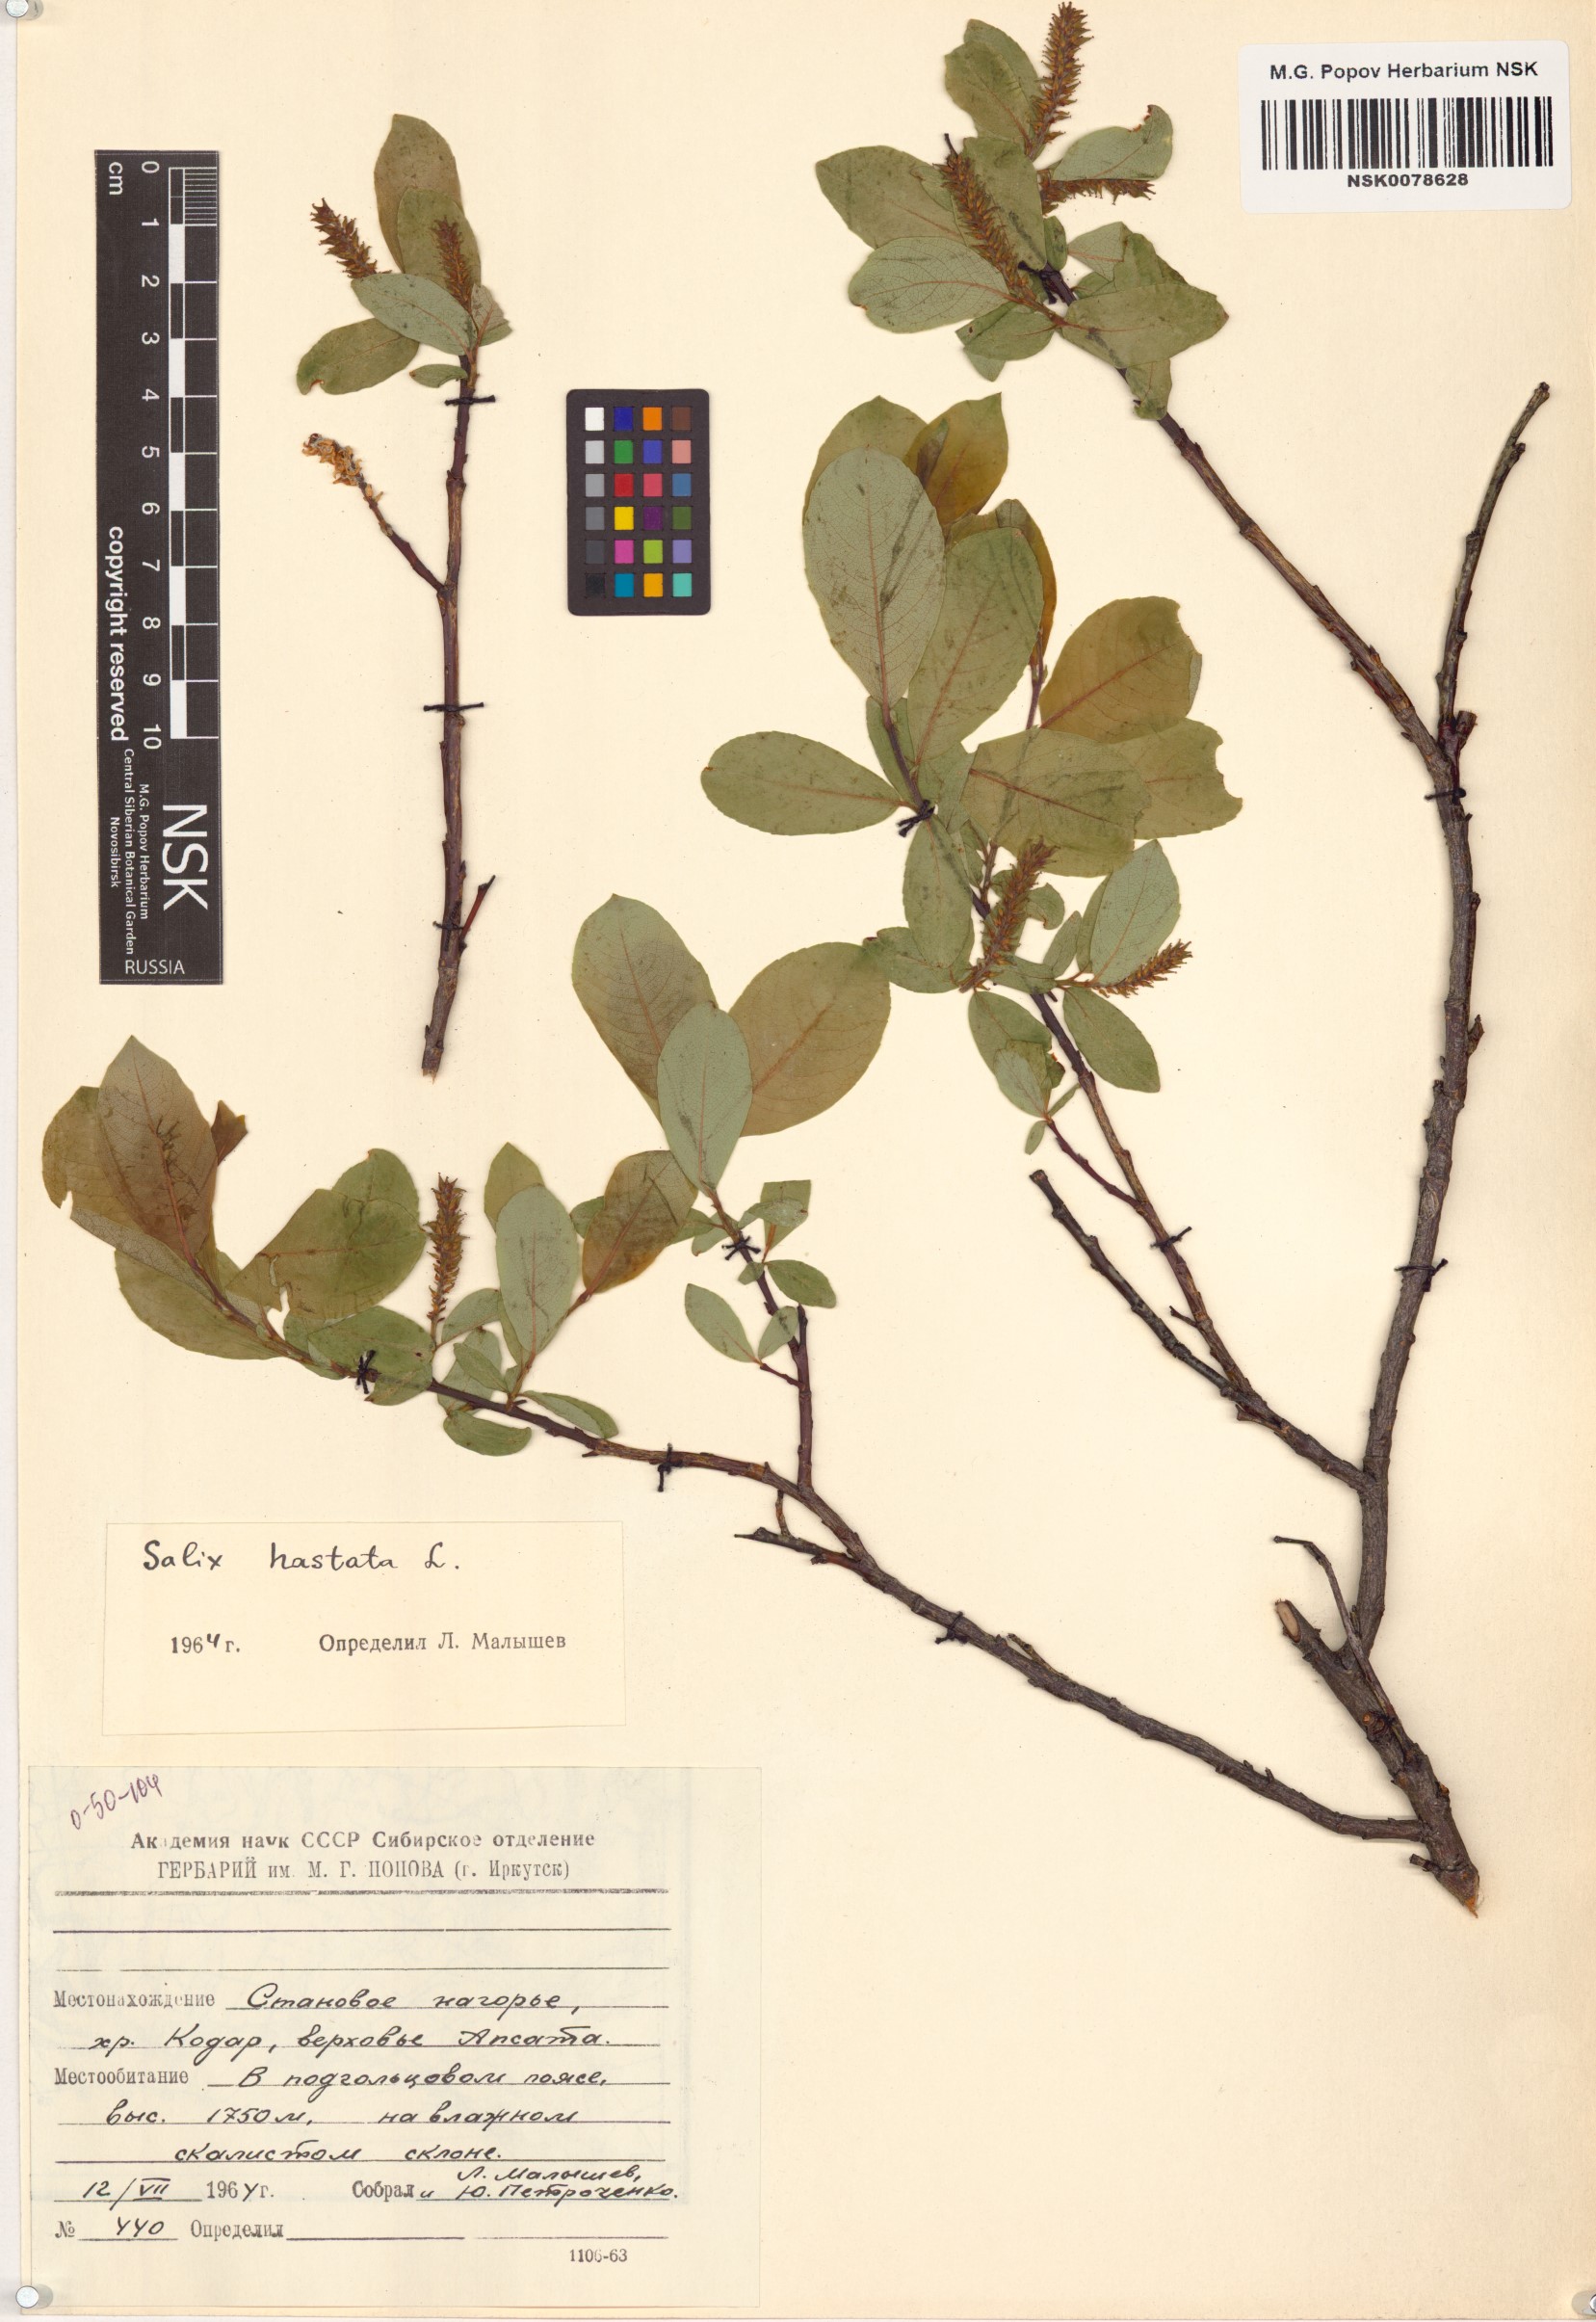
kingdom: Plantae
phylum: Tracheophyta
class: Magnoliopsida
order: Malpighiales
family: Salicaceae
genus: Salix
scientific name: Salix hastata
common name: Halberd willow
